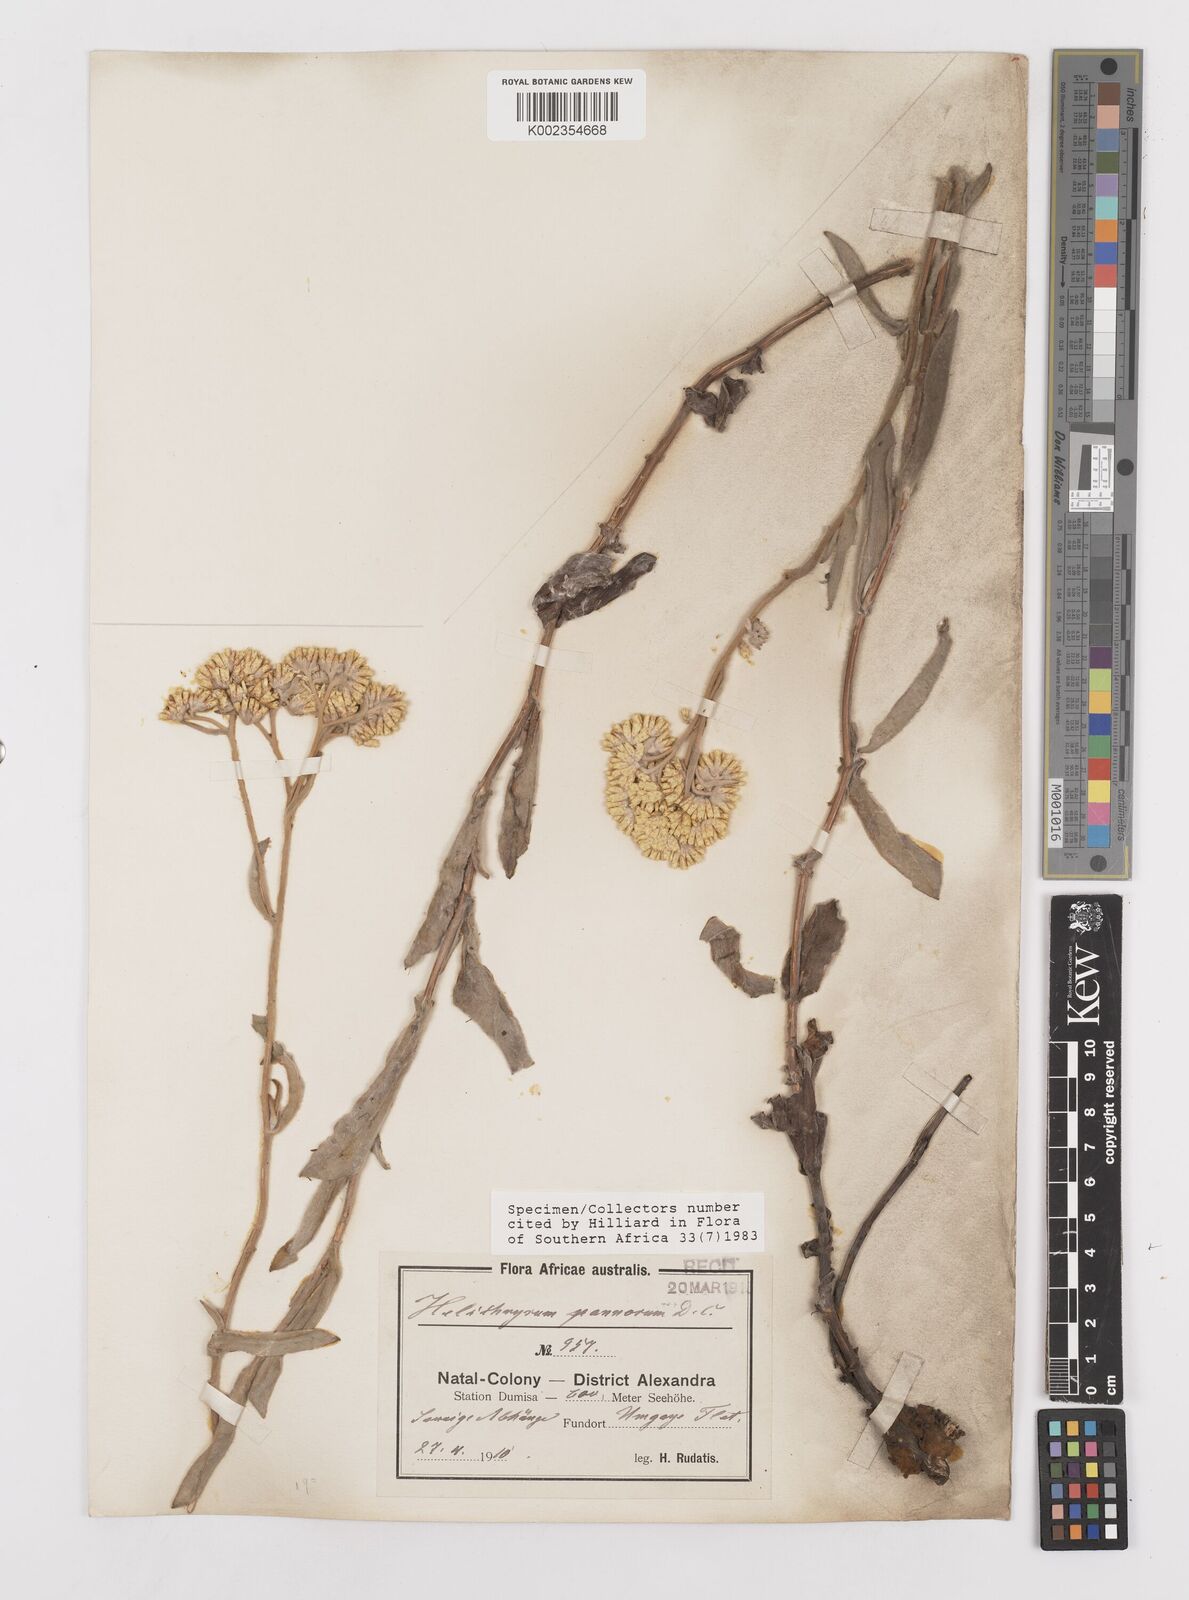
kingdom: Plantae
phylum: Tracheophyta
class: Magnoliopsida
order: Asterales
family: Asteraceae
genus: Helichrysum
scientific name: Helichrysum pannosum
